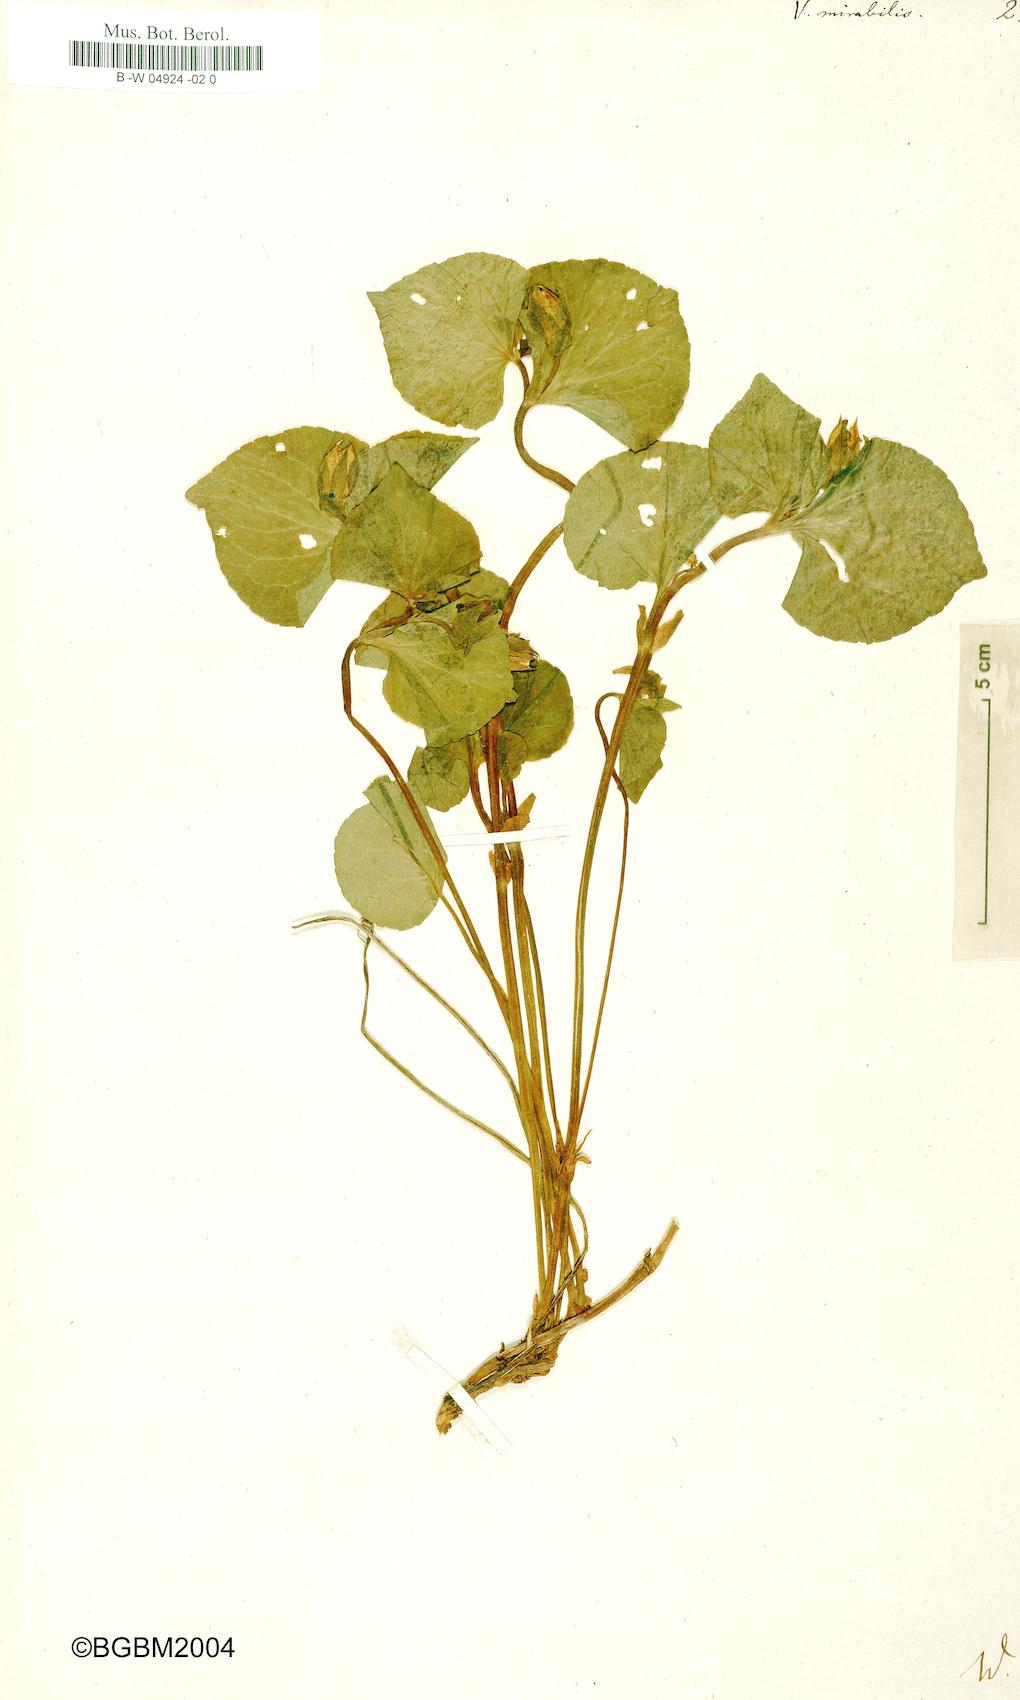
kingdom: Plantae
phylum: Tracheophyta
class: Magnoliopsida
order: Malpighiales
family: Violaceae
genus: Viola
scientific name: Viola mirabilis
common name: Wonder violet
